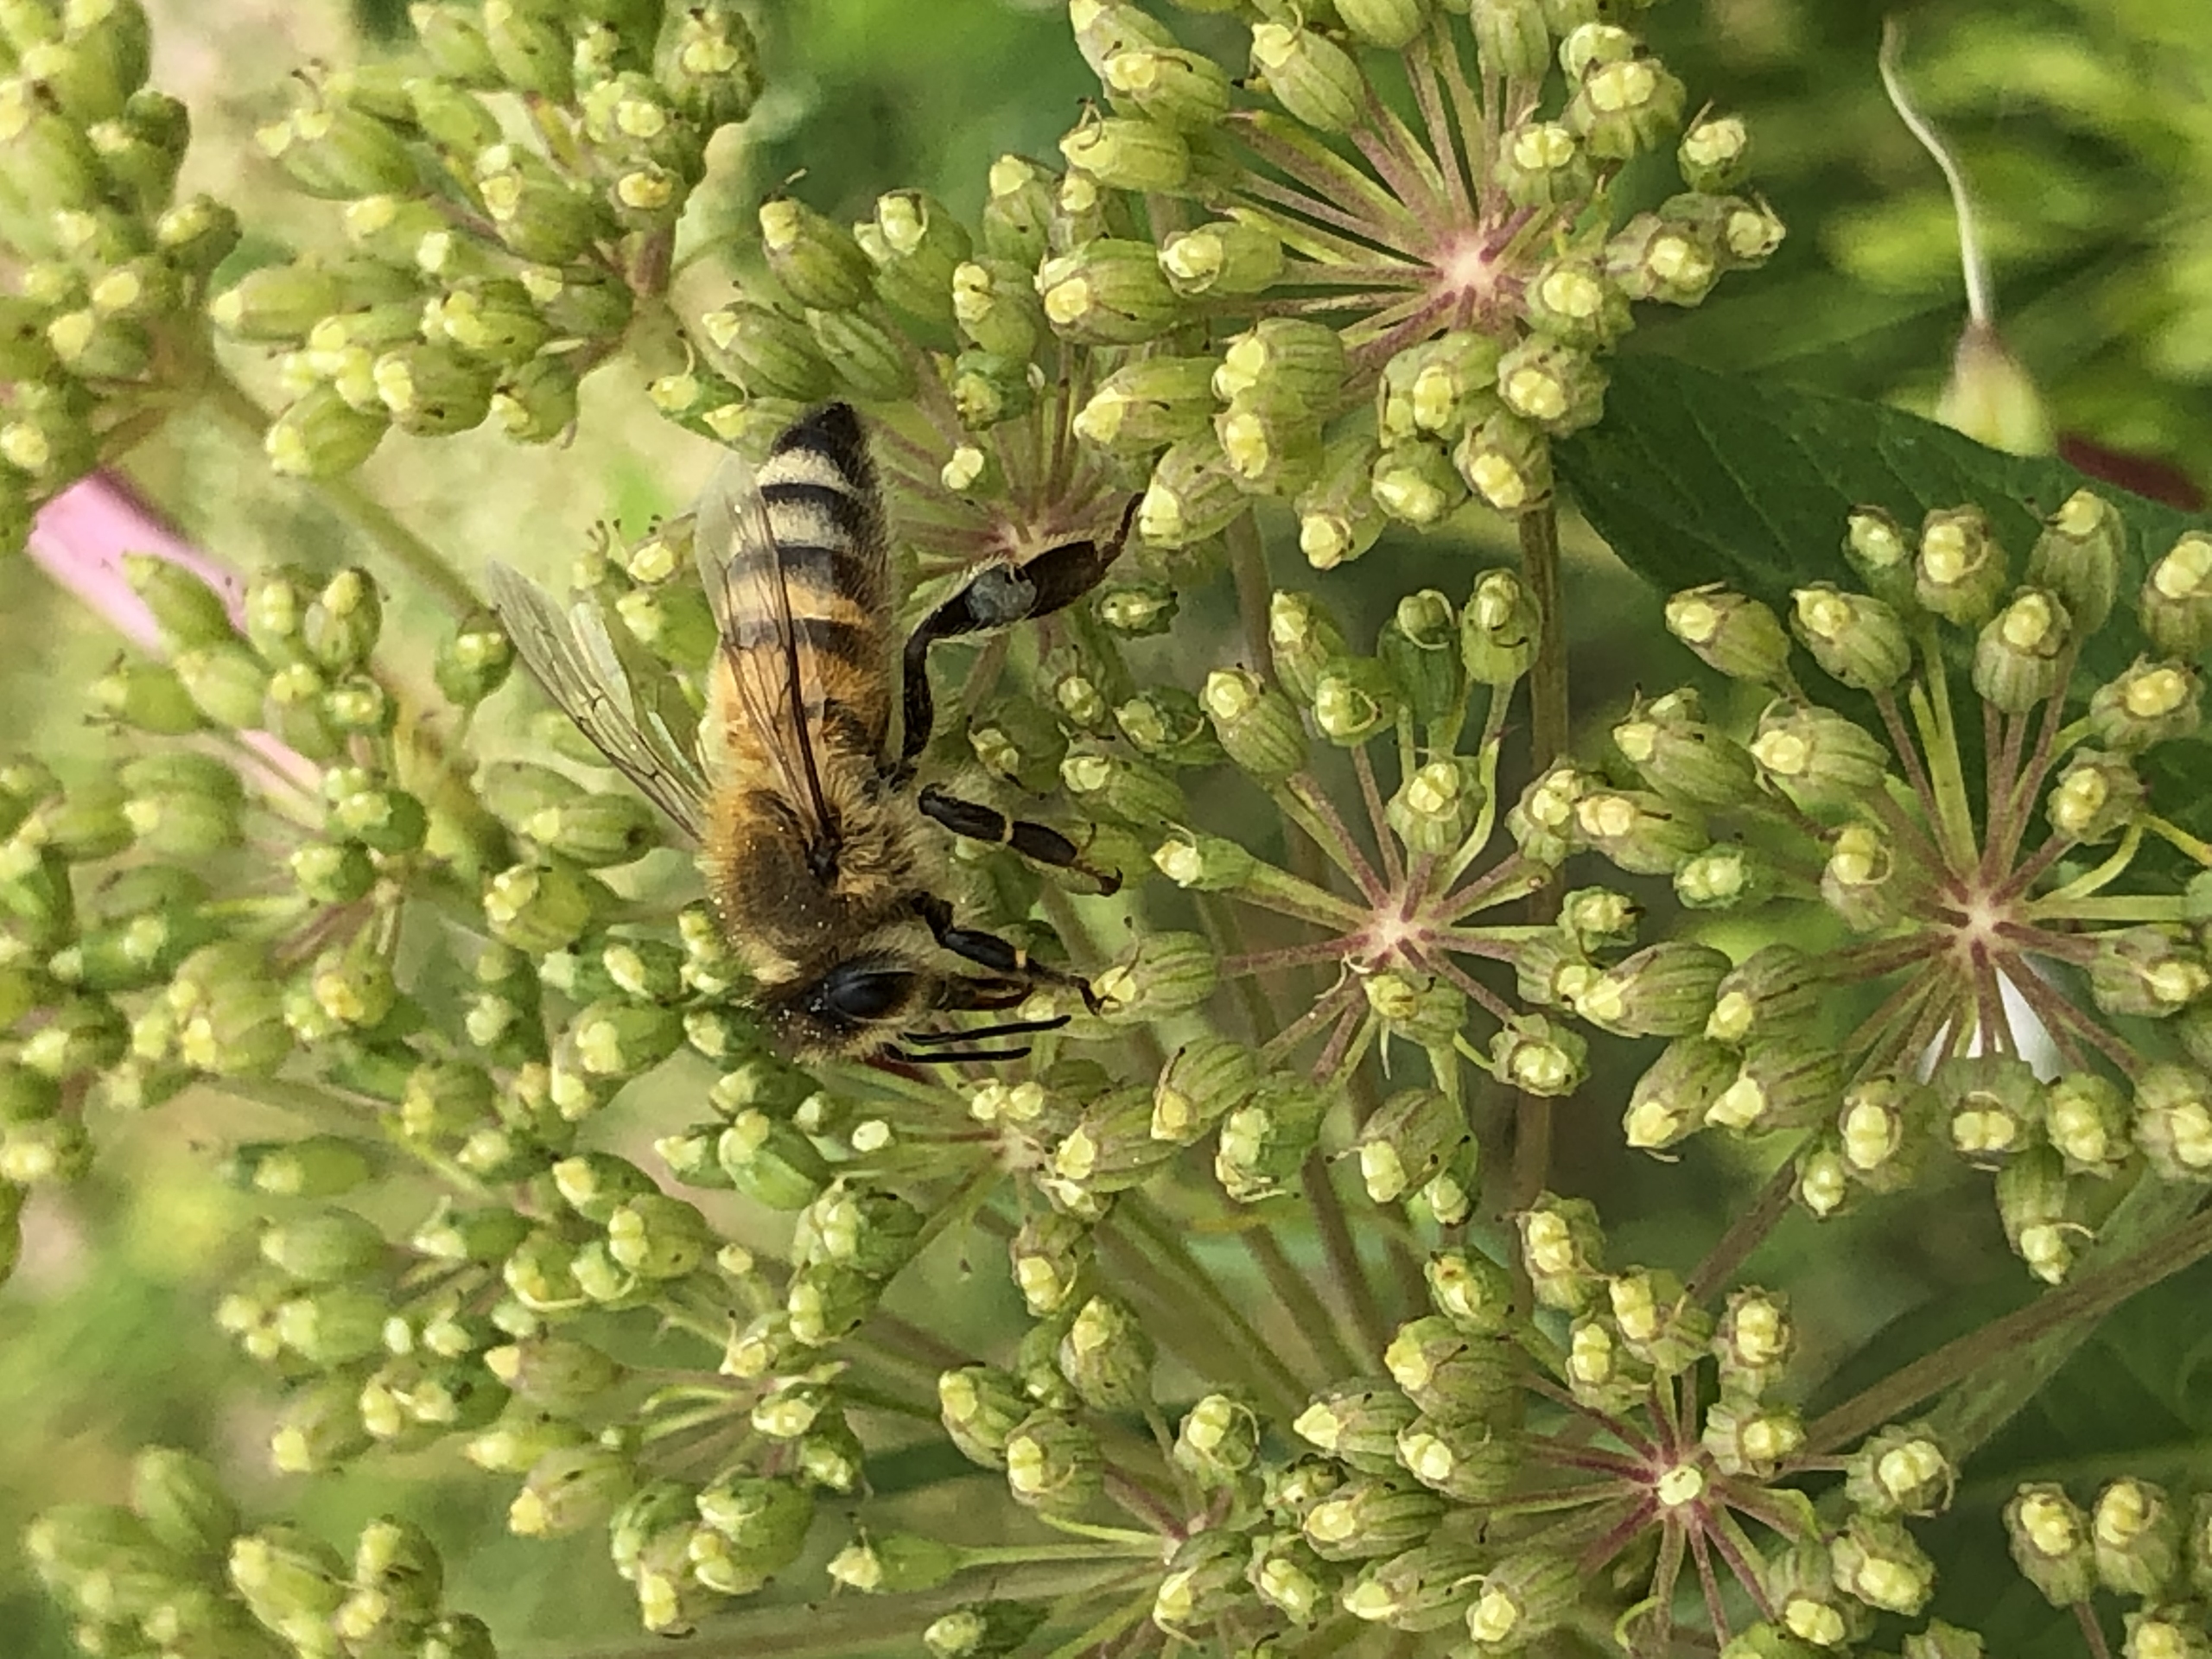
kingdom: Animalia
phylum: Arthropoda
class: Insecta
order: Hymenoptera
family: Apidae
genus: Apis
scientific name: Apis mellifera
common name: Honningbi
